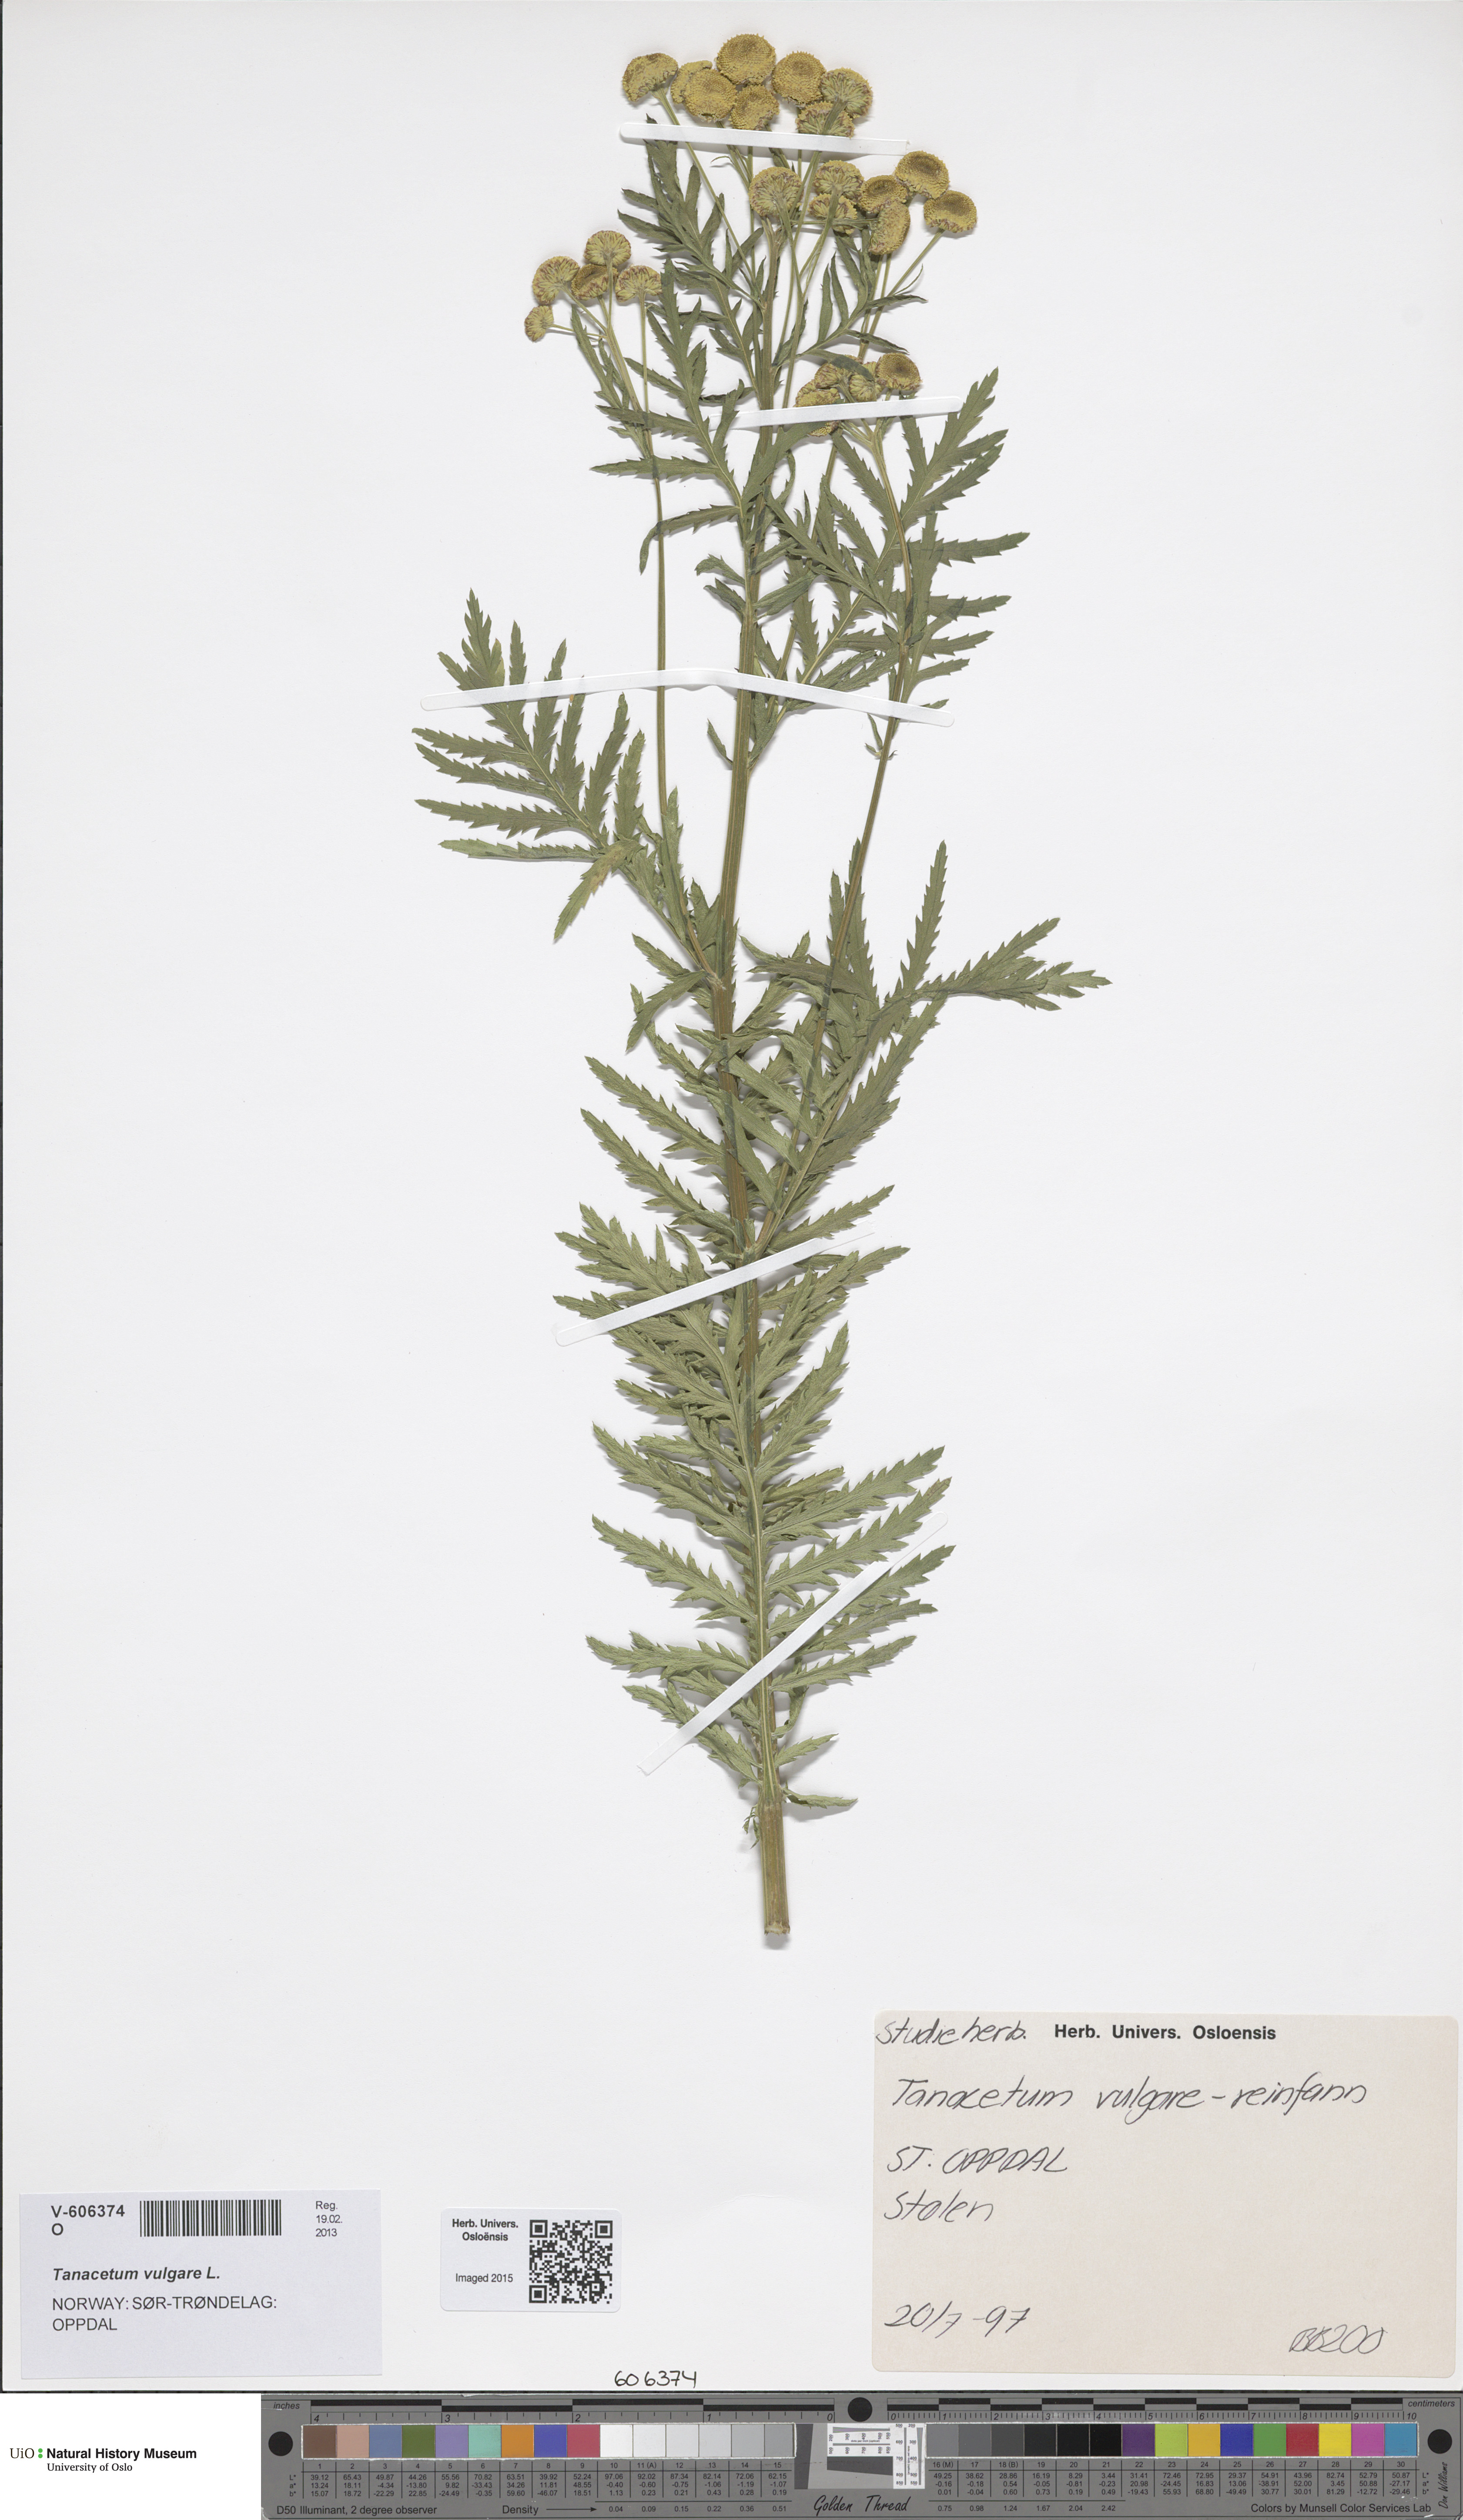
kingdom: Plantae
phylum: Tracheophyta
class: Magnoliopsida
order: Asterales
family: Asteraceae
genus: Tanacetum
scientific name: Tanacetum vulgare
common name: Common tansy
